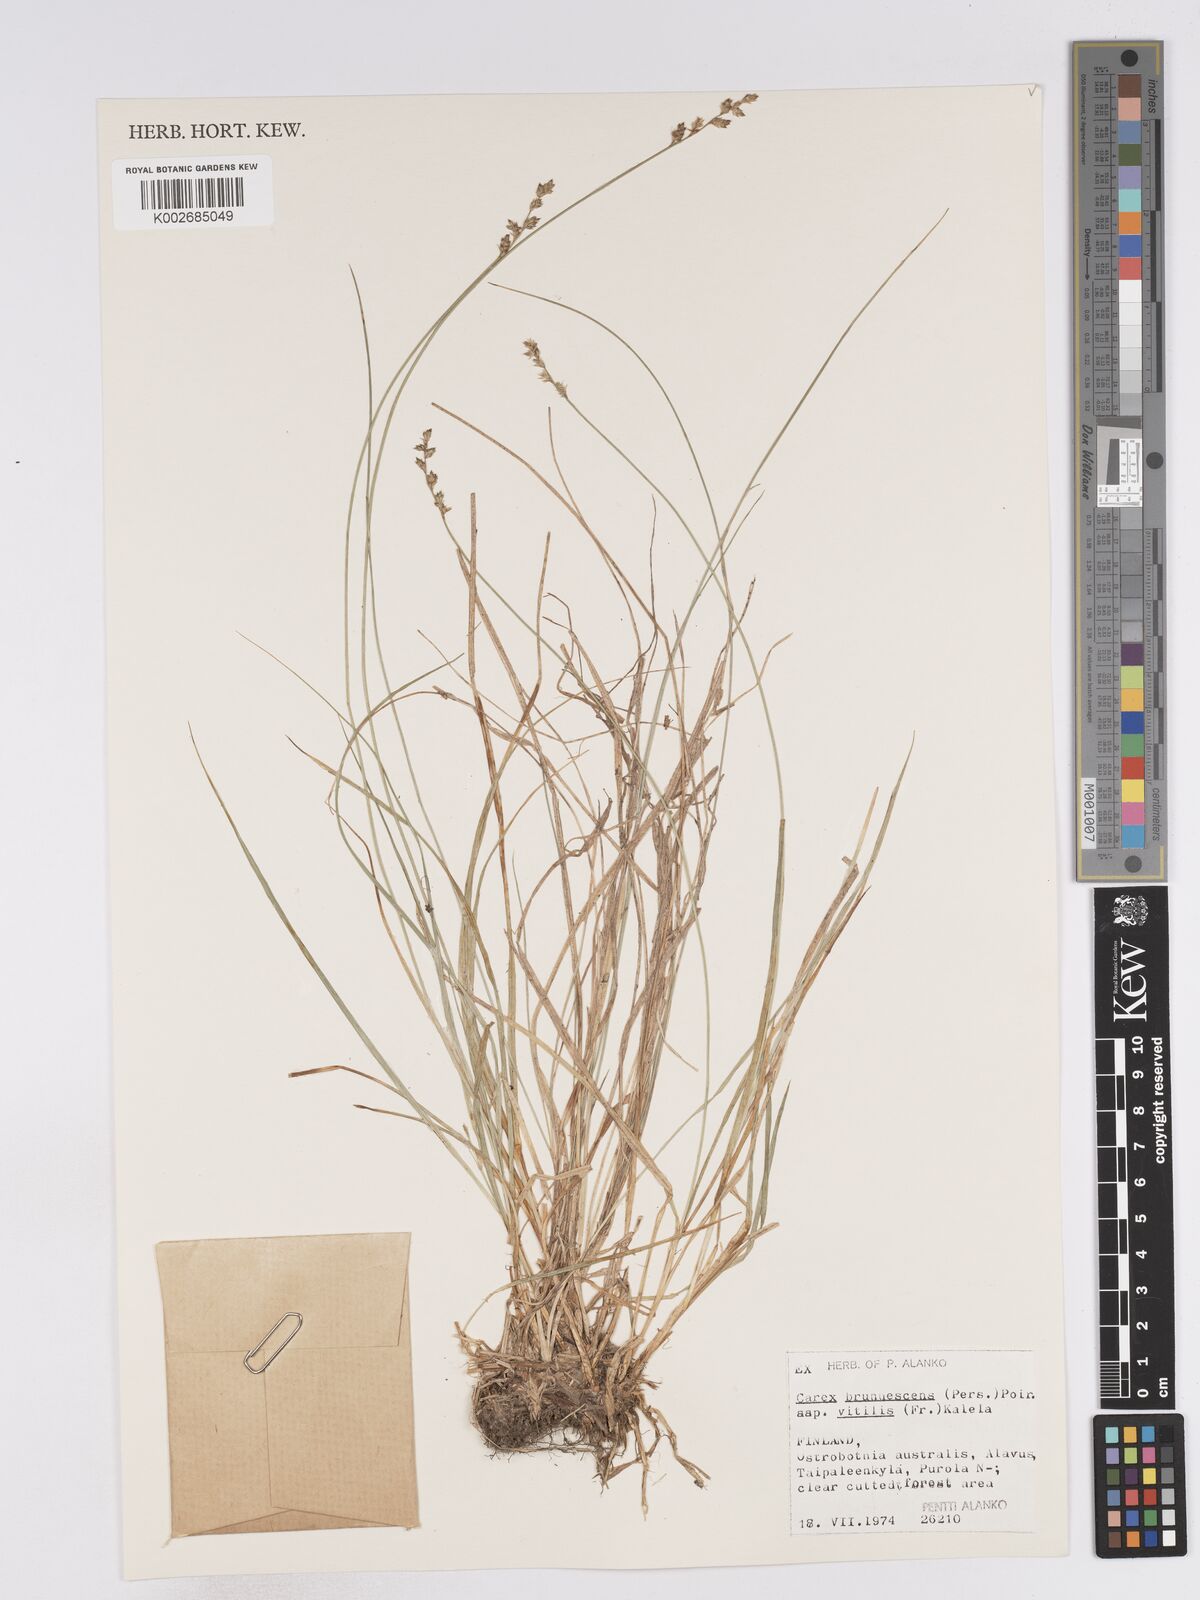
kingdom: Plantae
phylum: Tracheophyta
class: Liliopsida
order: Poales
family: Cyperaceae
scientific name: Cyperaceae
